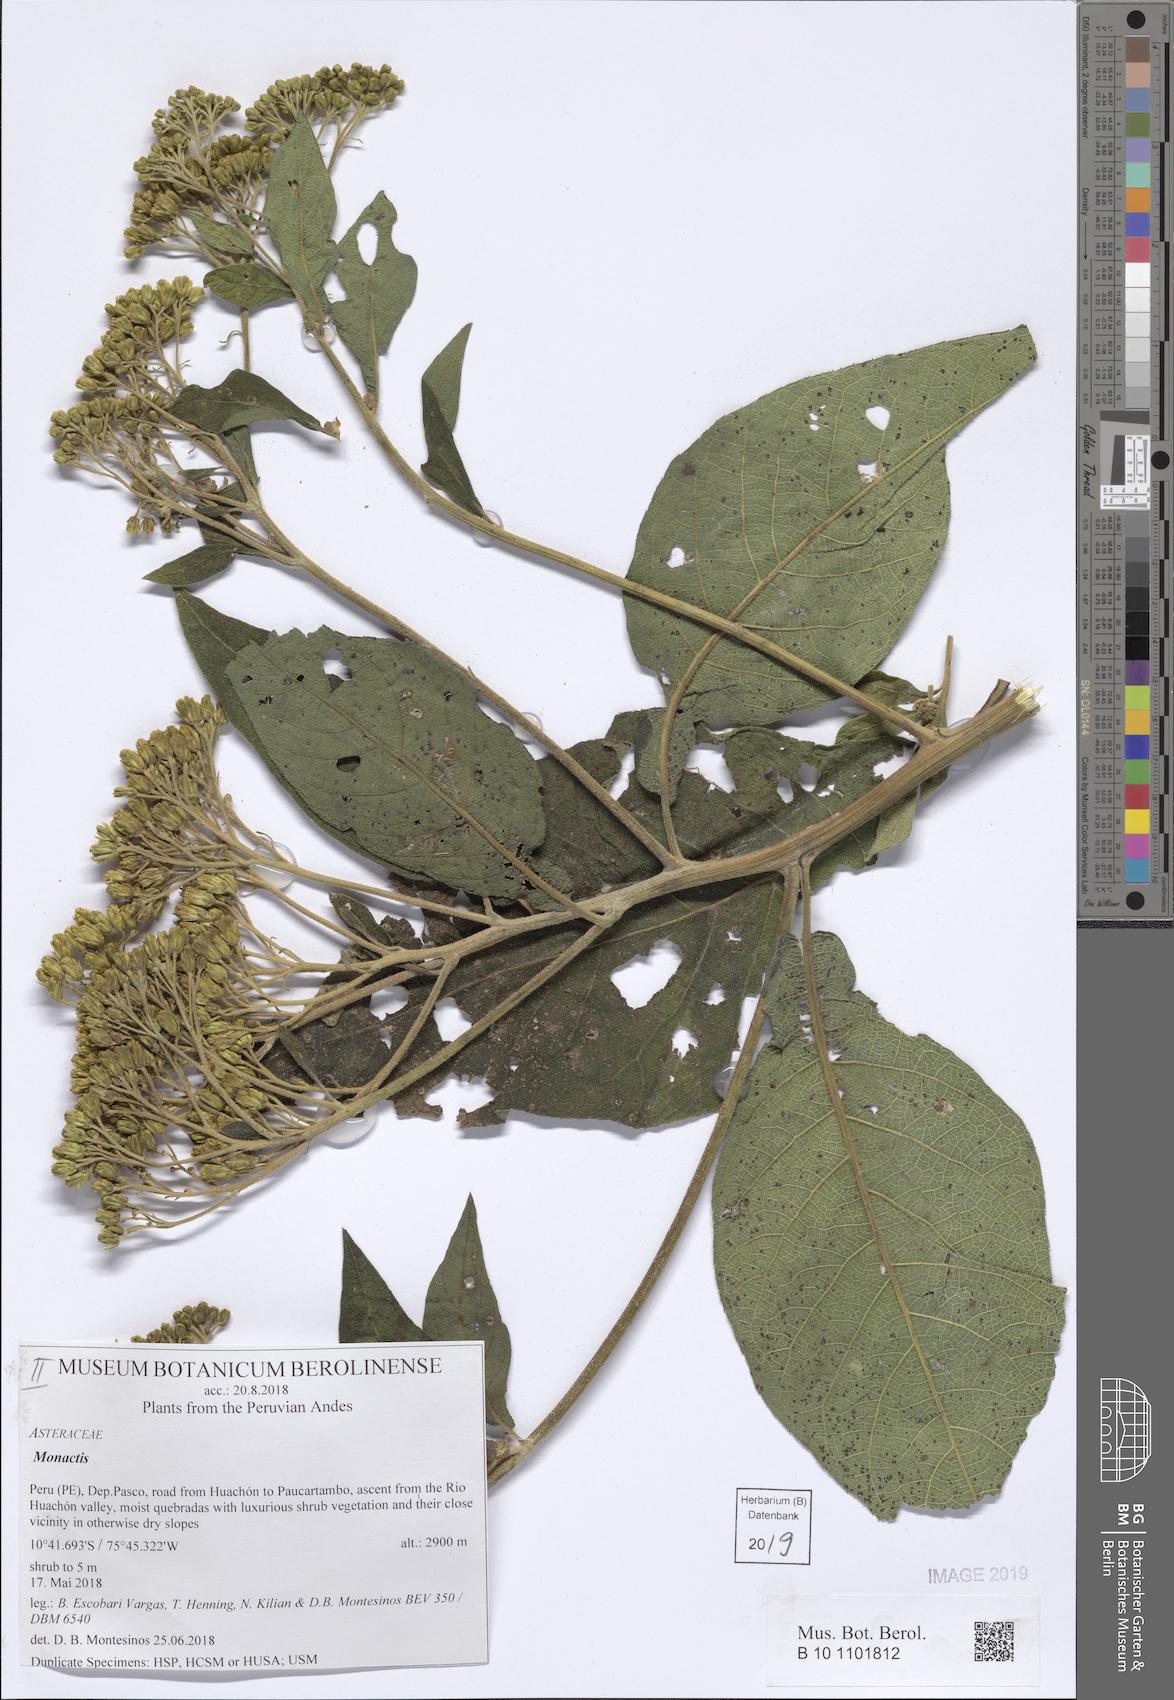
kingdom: Plantae
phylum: Tracheophyta
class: Magnoliopsida
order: Asterales
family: Asteraceae
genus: Monactis
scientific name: Monactis rhombifolia
